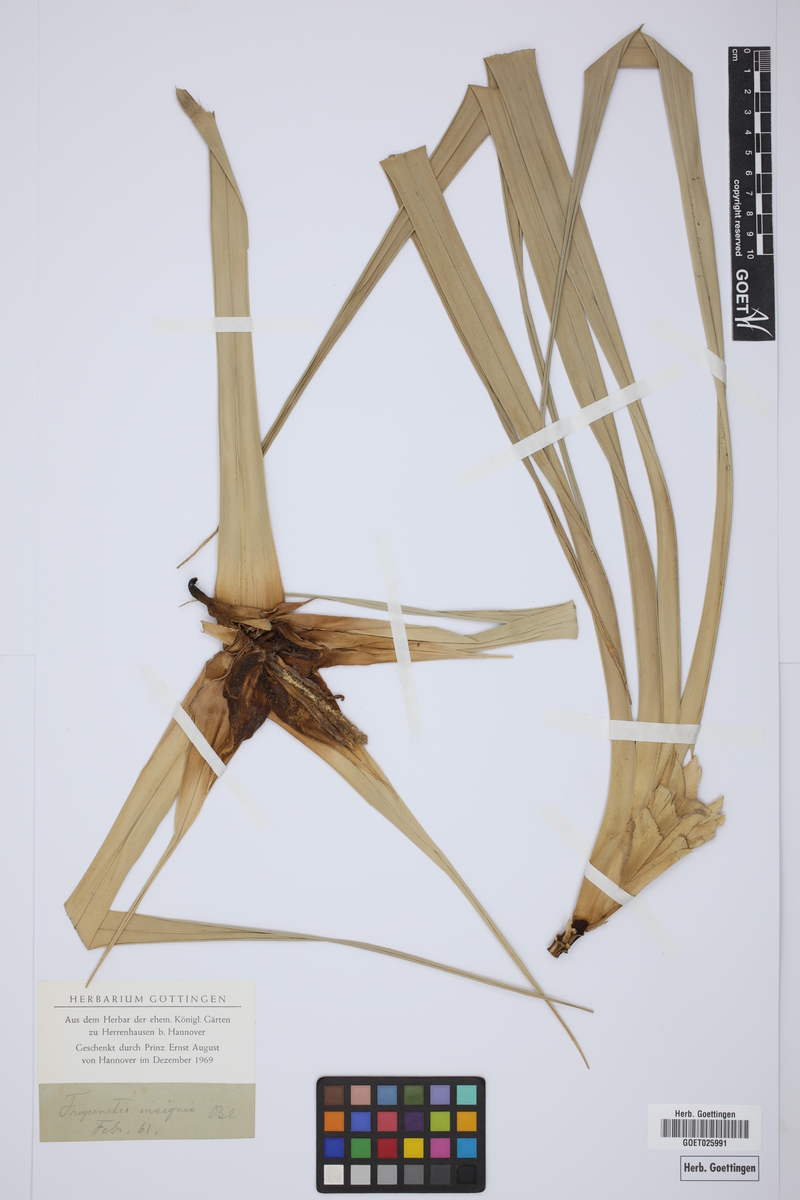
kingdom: Plantae
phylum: Tracheophyta
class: Liliopsida
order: Pandanales
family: Pandanaceae
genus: Freycinetia
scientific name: Freycinetia insignis
